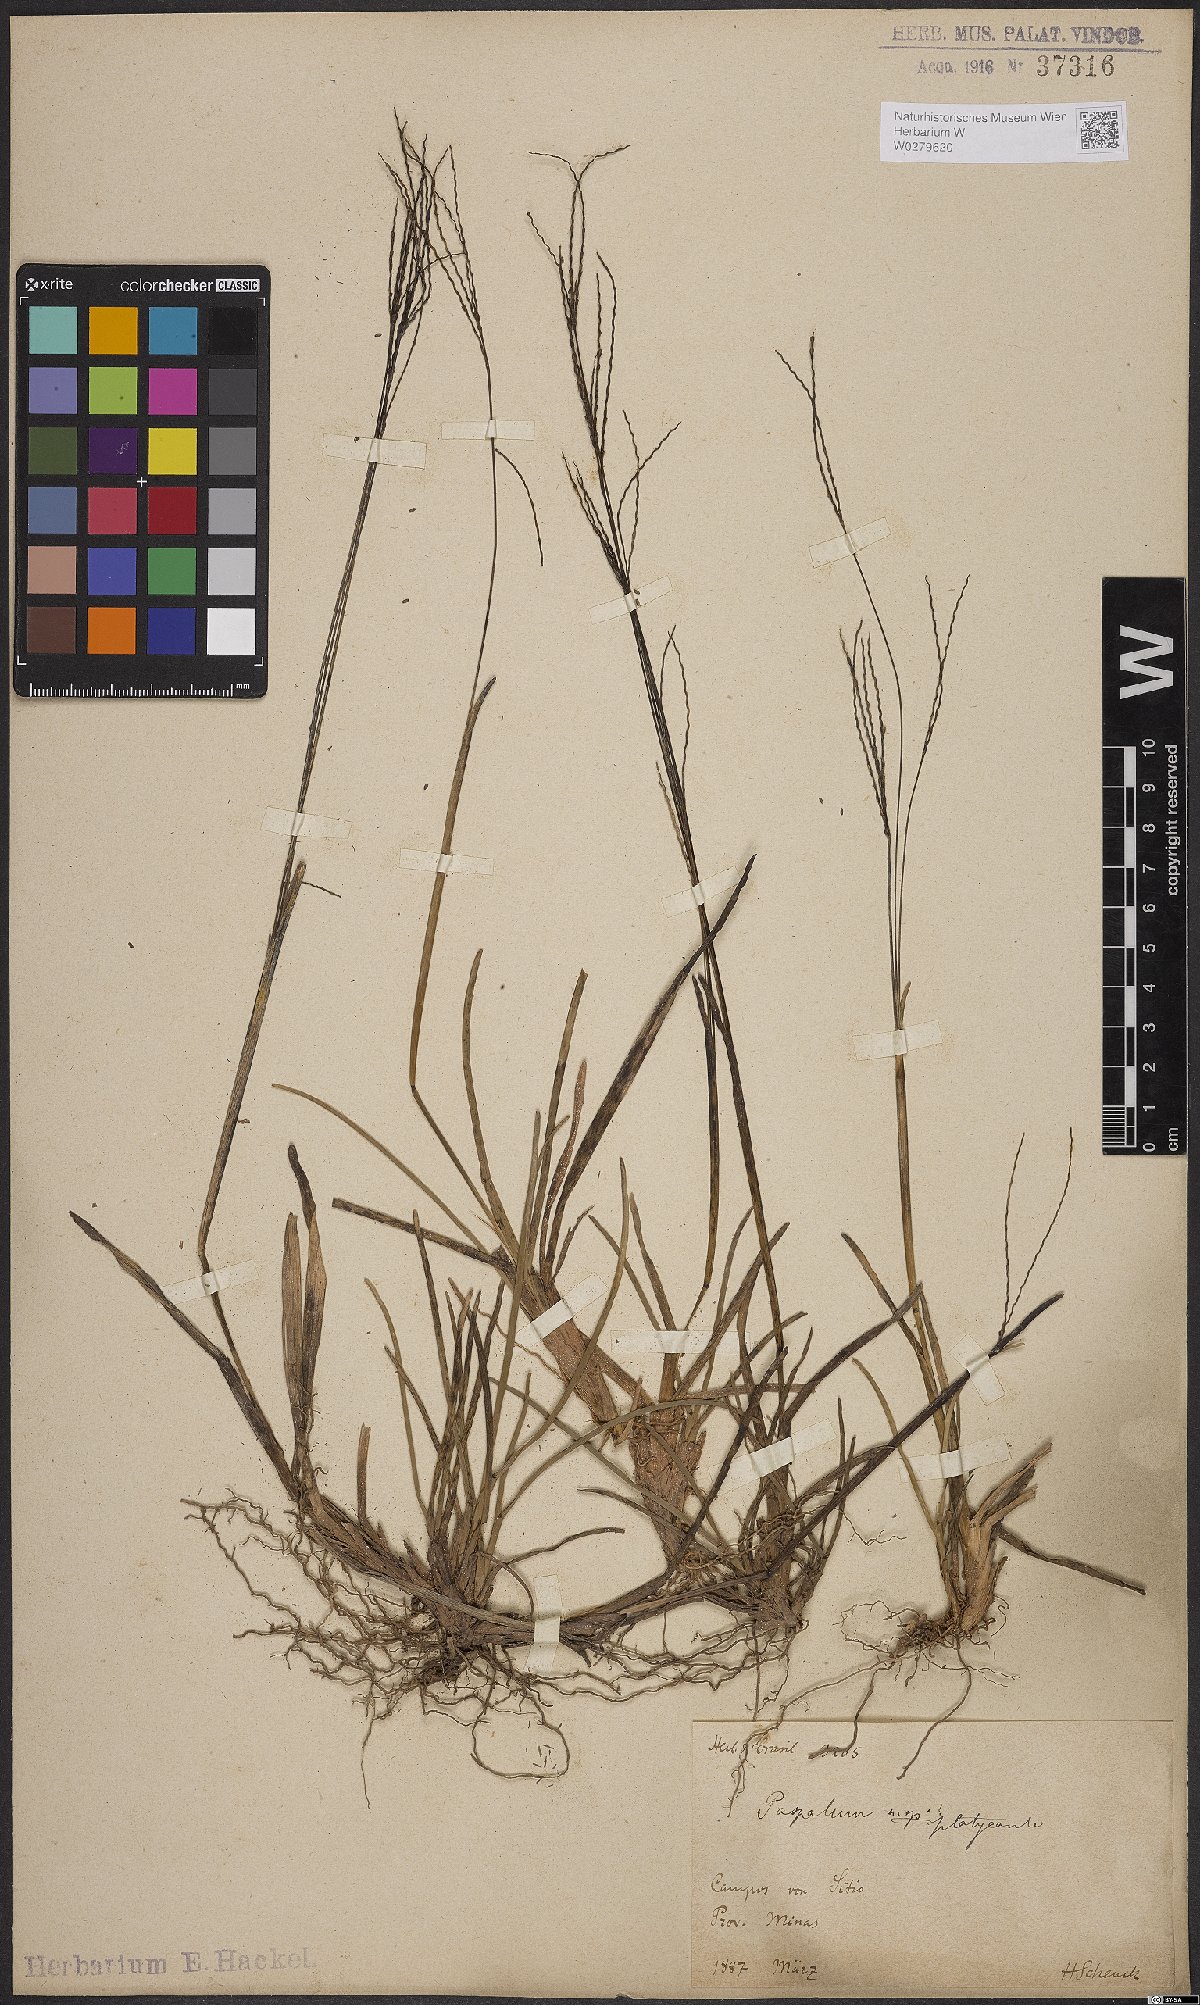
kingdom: Plantae
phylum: Tracheophyta
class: Liliopsida
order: Poales
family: Poaceae
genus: Axonopus
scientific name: Axonopus compressus
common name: American carpet grass
